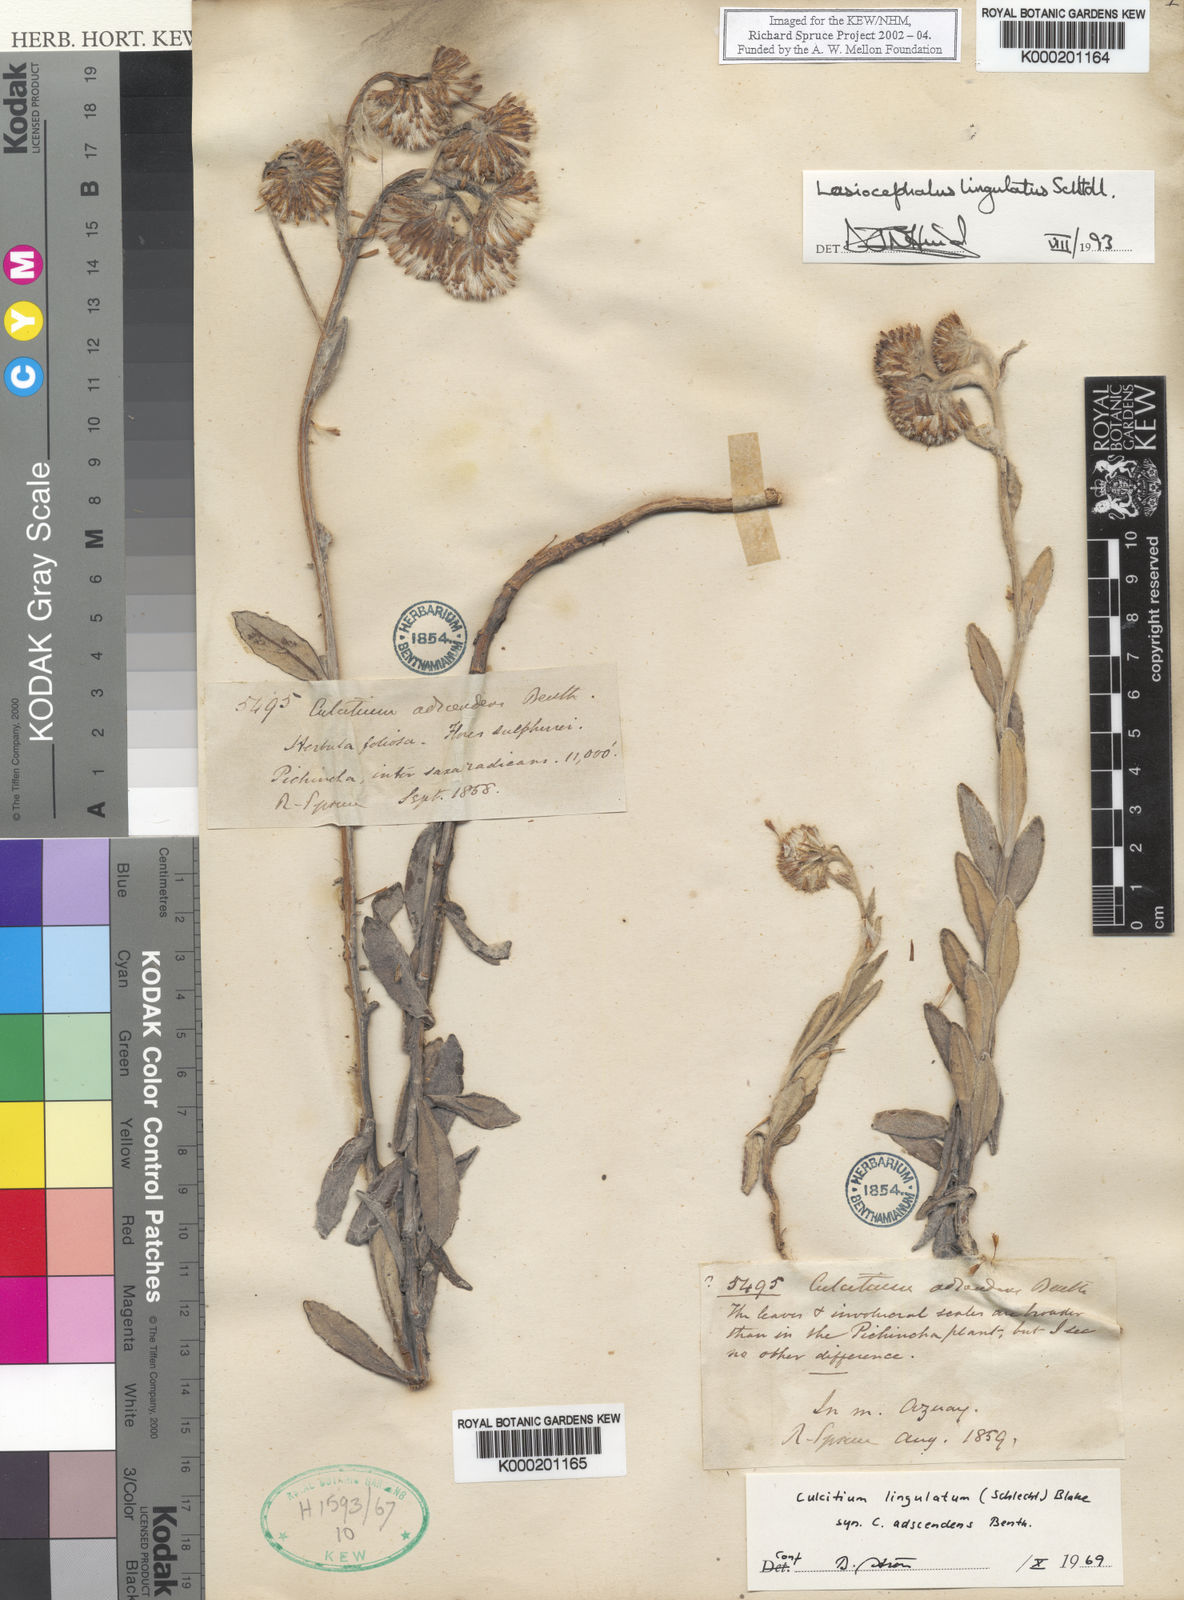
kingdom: Plantae
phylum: Tracheophyta
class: Magnoliopsida
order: Asterales
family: Asteraceae
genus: Lasiocephalus
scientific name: Lasiocephalus lingulatus
